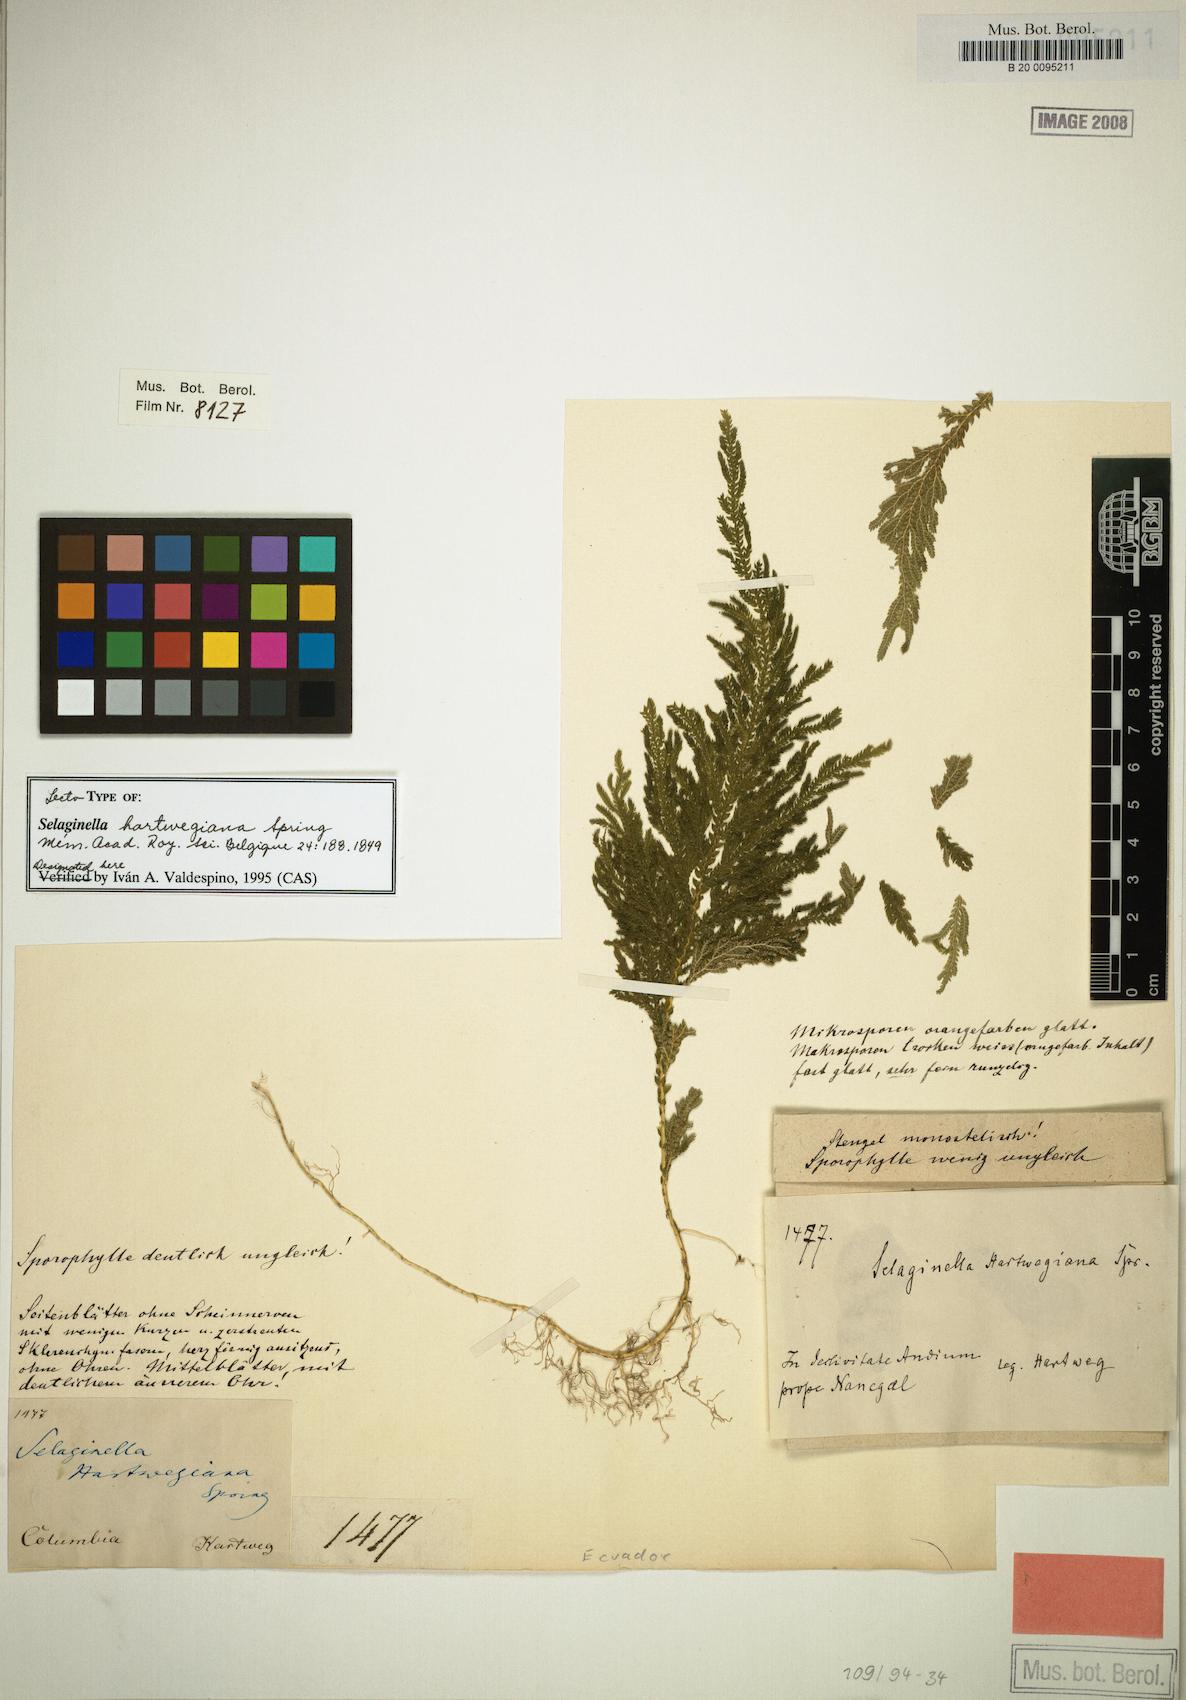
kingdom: Plantae
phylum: Tracheophyta
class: Lycopodiopsida
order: Selaginellales
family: Selaginellaceae
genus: Selaginella
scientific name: Selaginella hartwegiana
